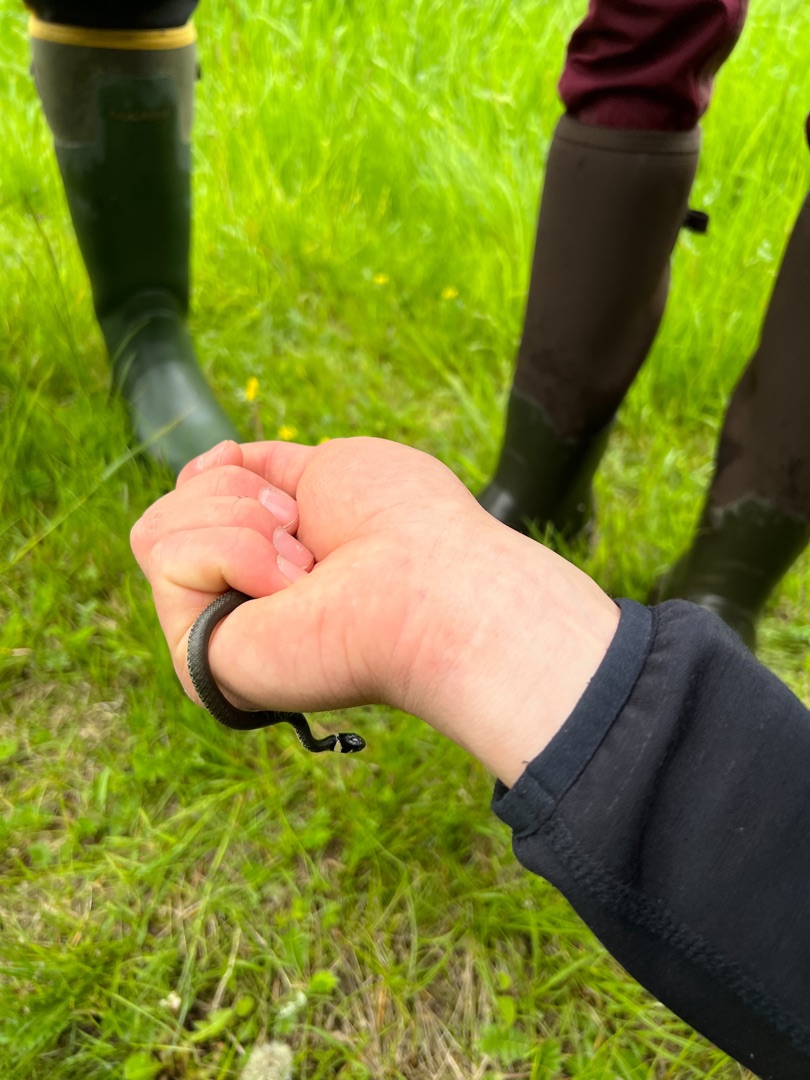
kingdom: Animalia
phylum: Chordata
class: Squamata
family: Colubridae
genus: Natrix
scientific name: Natrix natrix
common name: Snog
